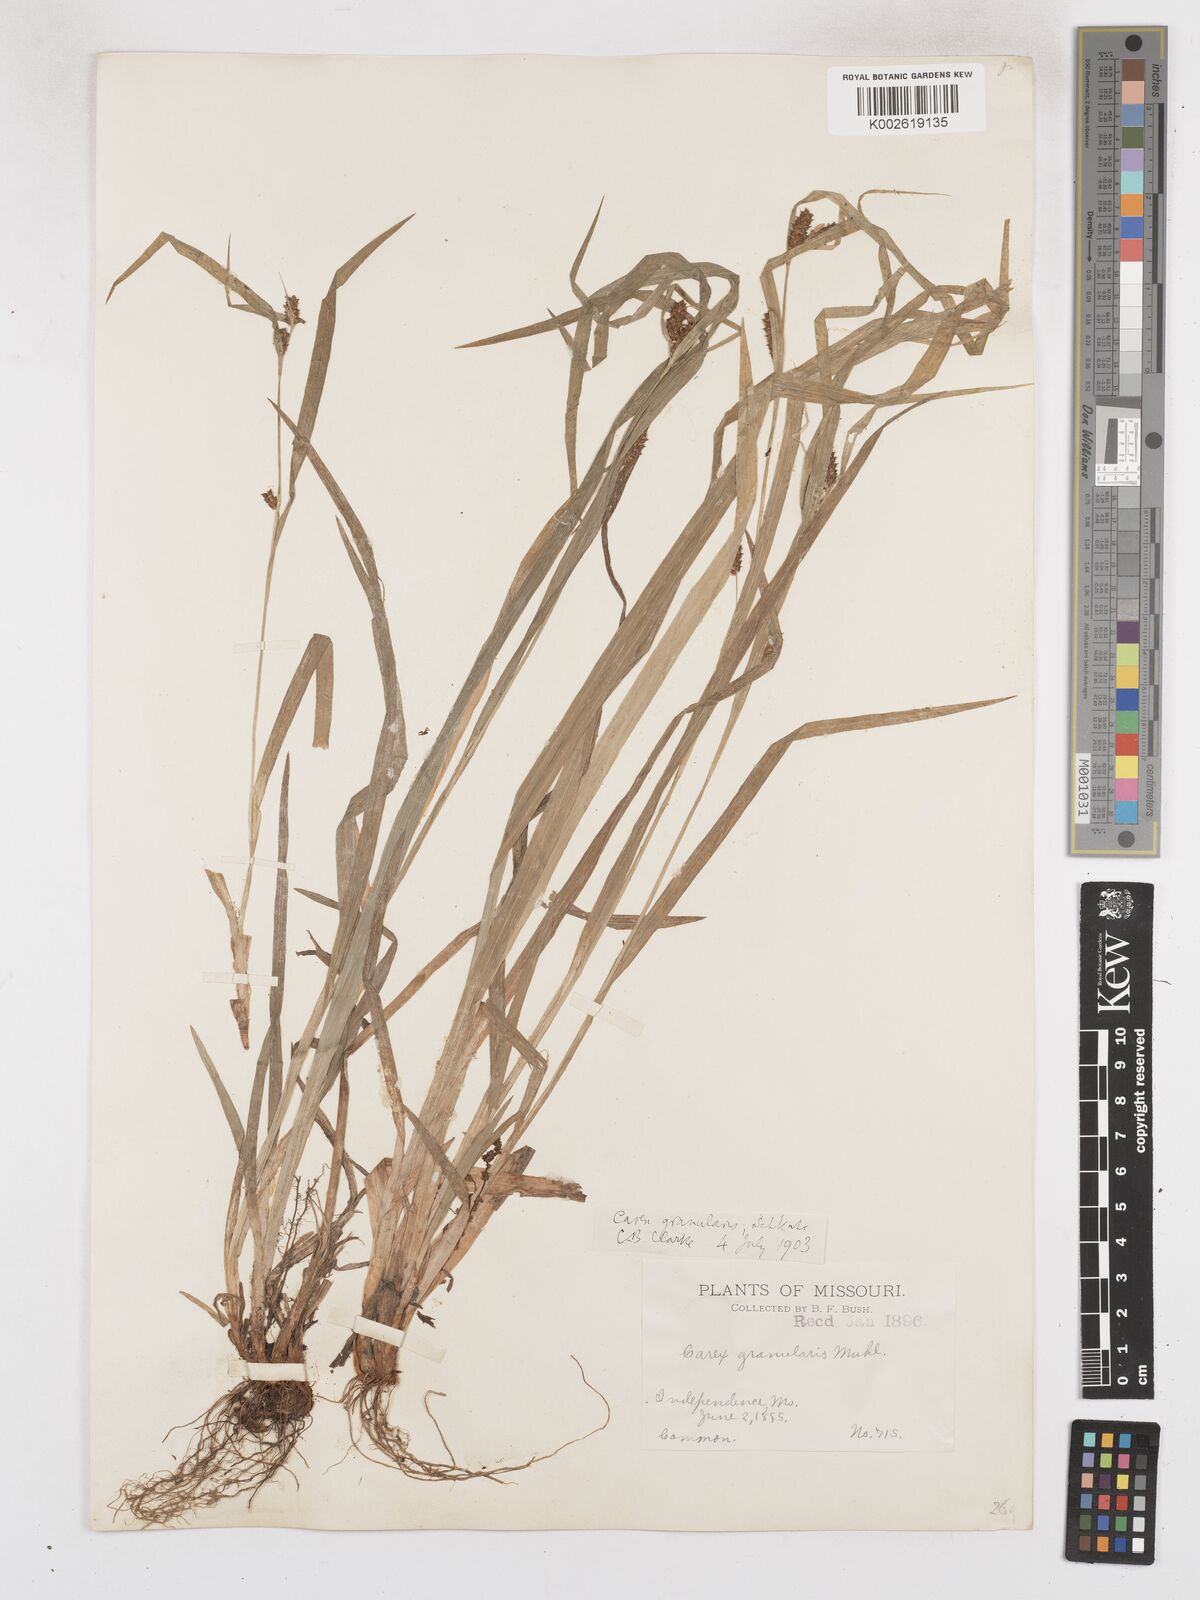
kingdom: Plantae
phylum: Tracheophyta
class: Liliopsida
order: Poales
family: Cyperaceae
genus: Carex
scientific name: Carex granularis
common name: Granular sedge
